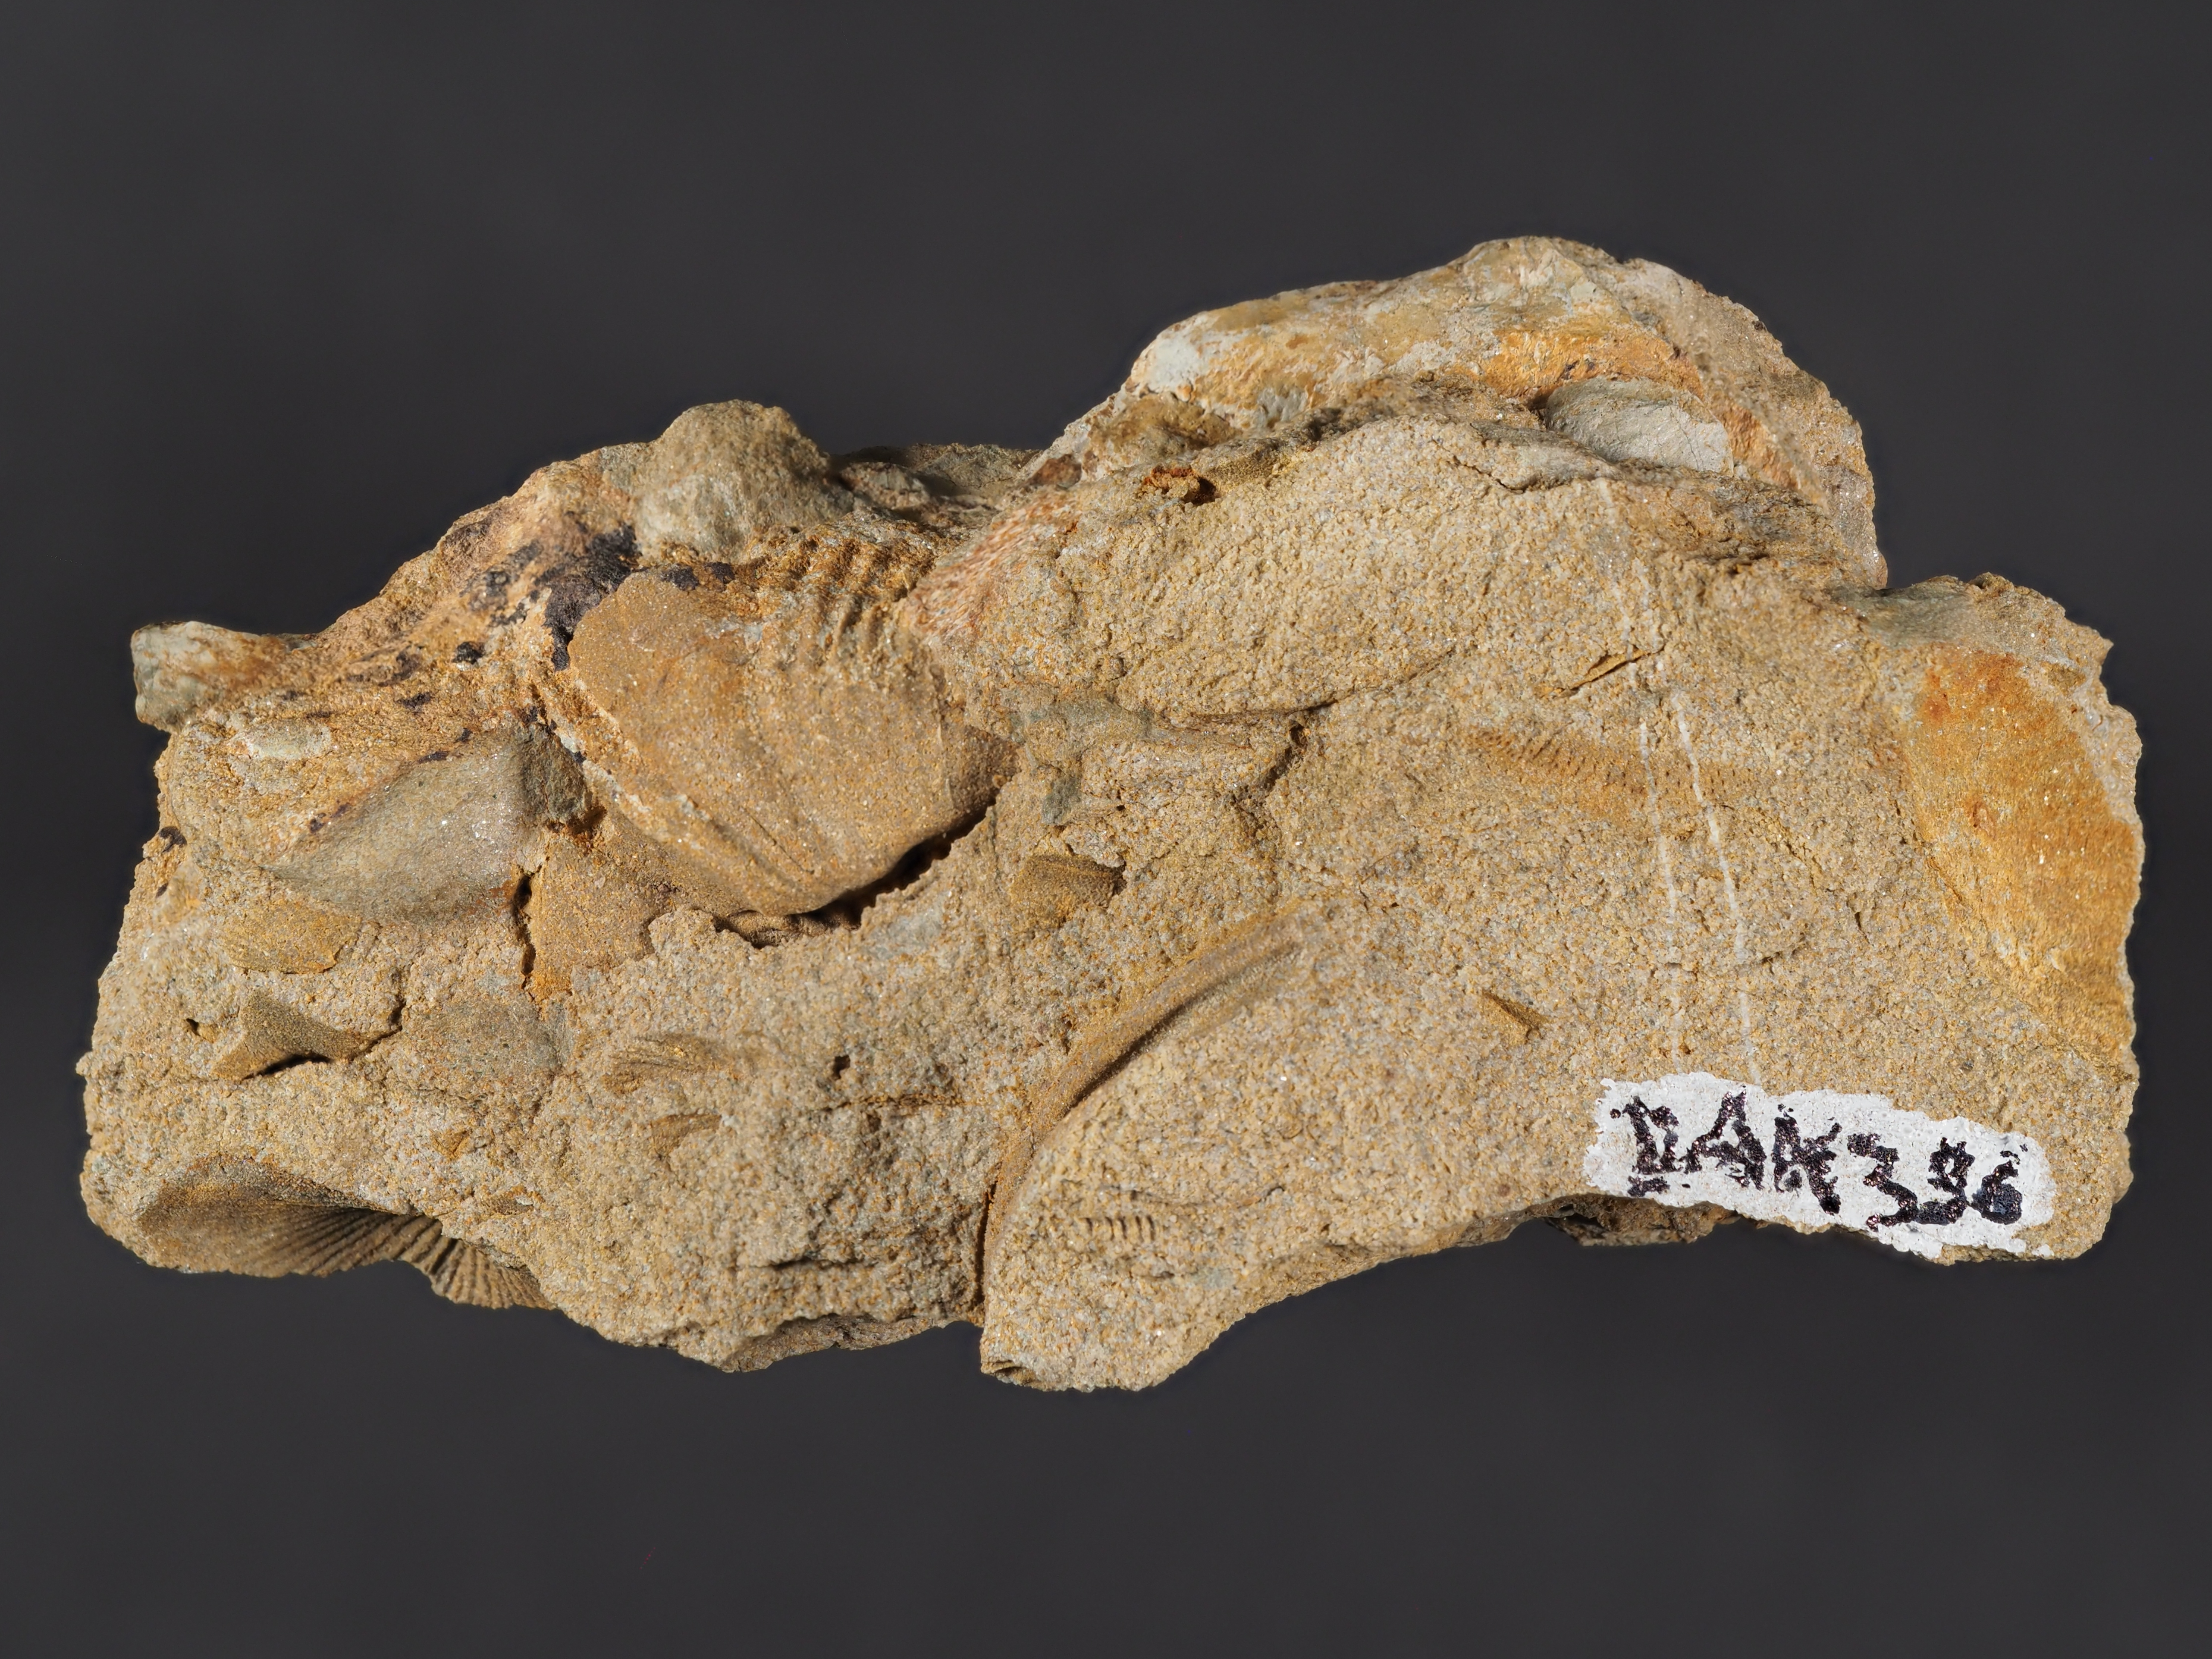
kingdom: Animalia
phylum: Brachiopoda
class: Rhynchonellata
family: Spinocyrtiidae
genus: Subcuspidella
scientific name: Subcuspidella
